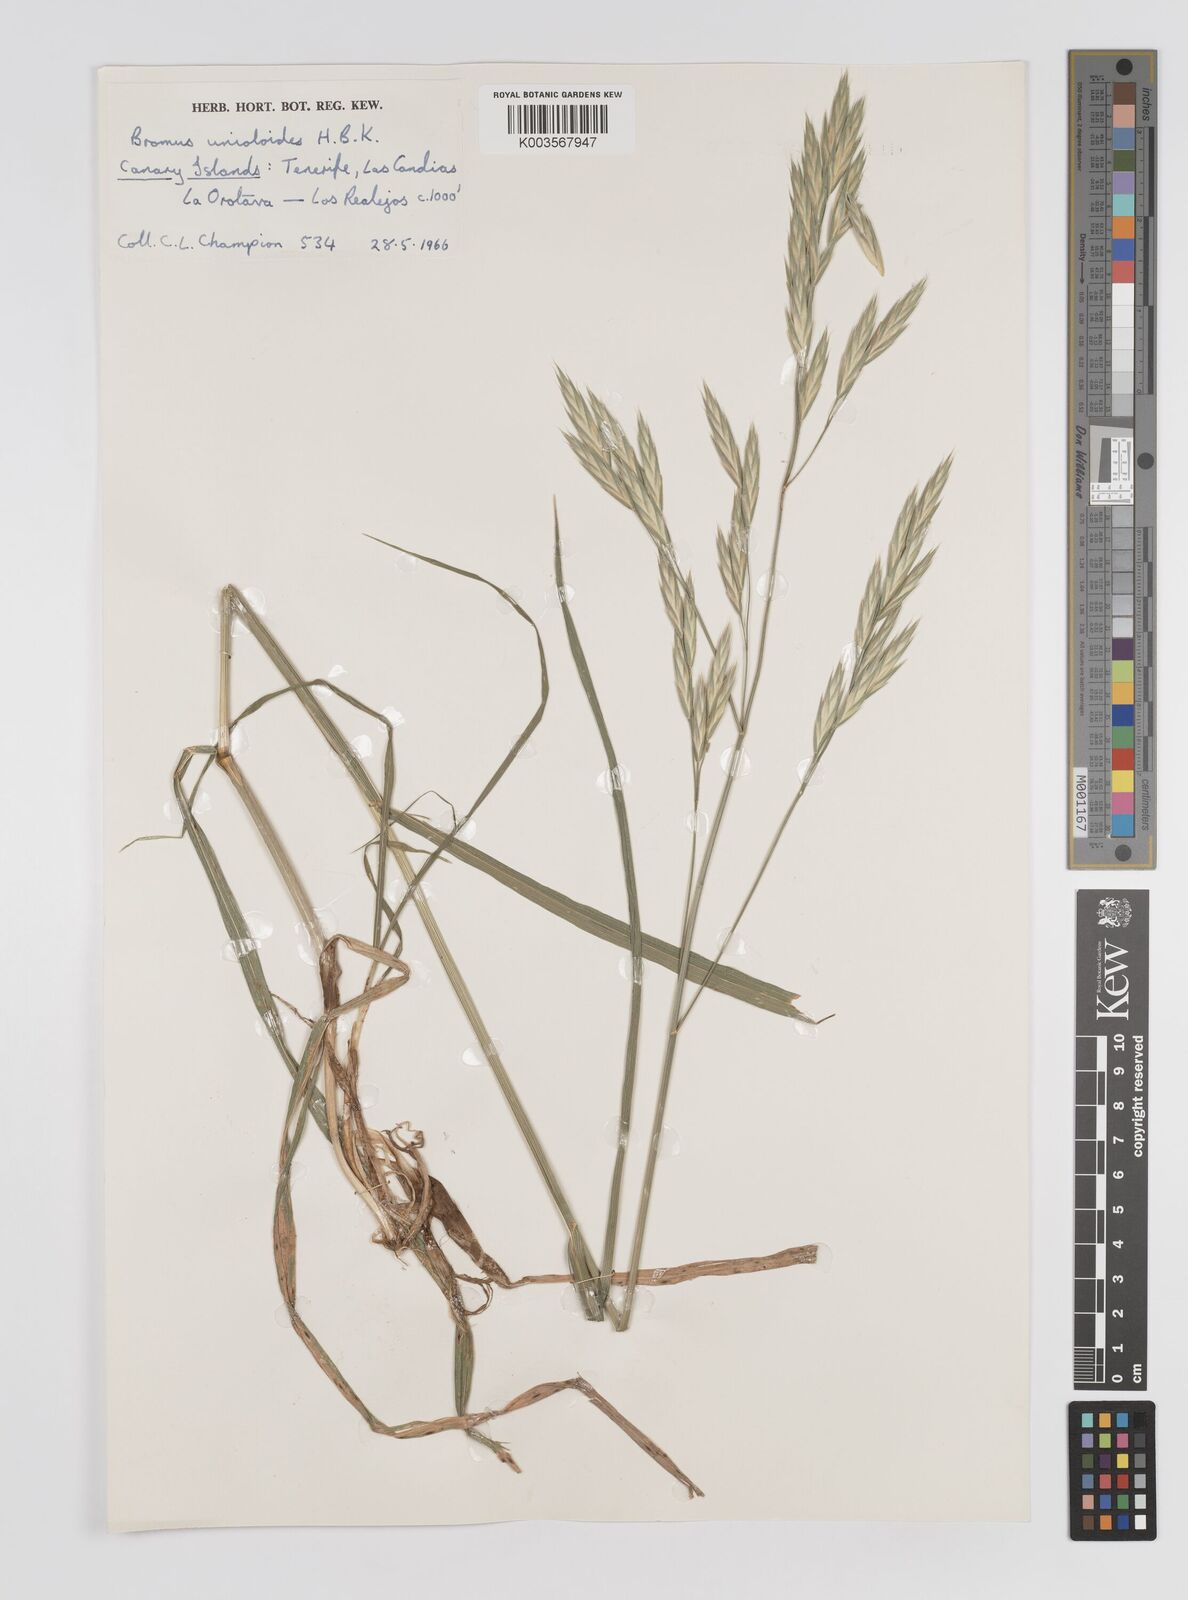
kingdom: Plantae
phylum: Tracheophyta
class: Liliopsida
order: Poales
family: Poaceae
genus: Bromus
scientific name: Bromus catharticus
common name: Rescuegrass
